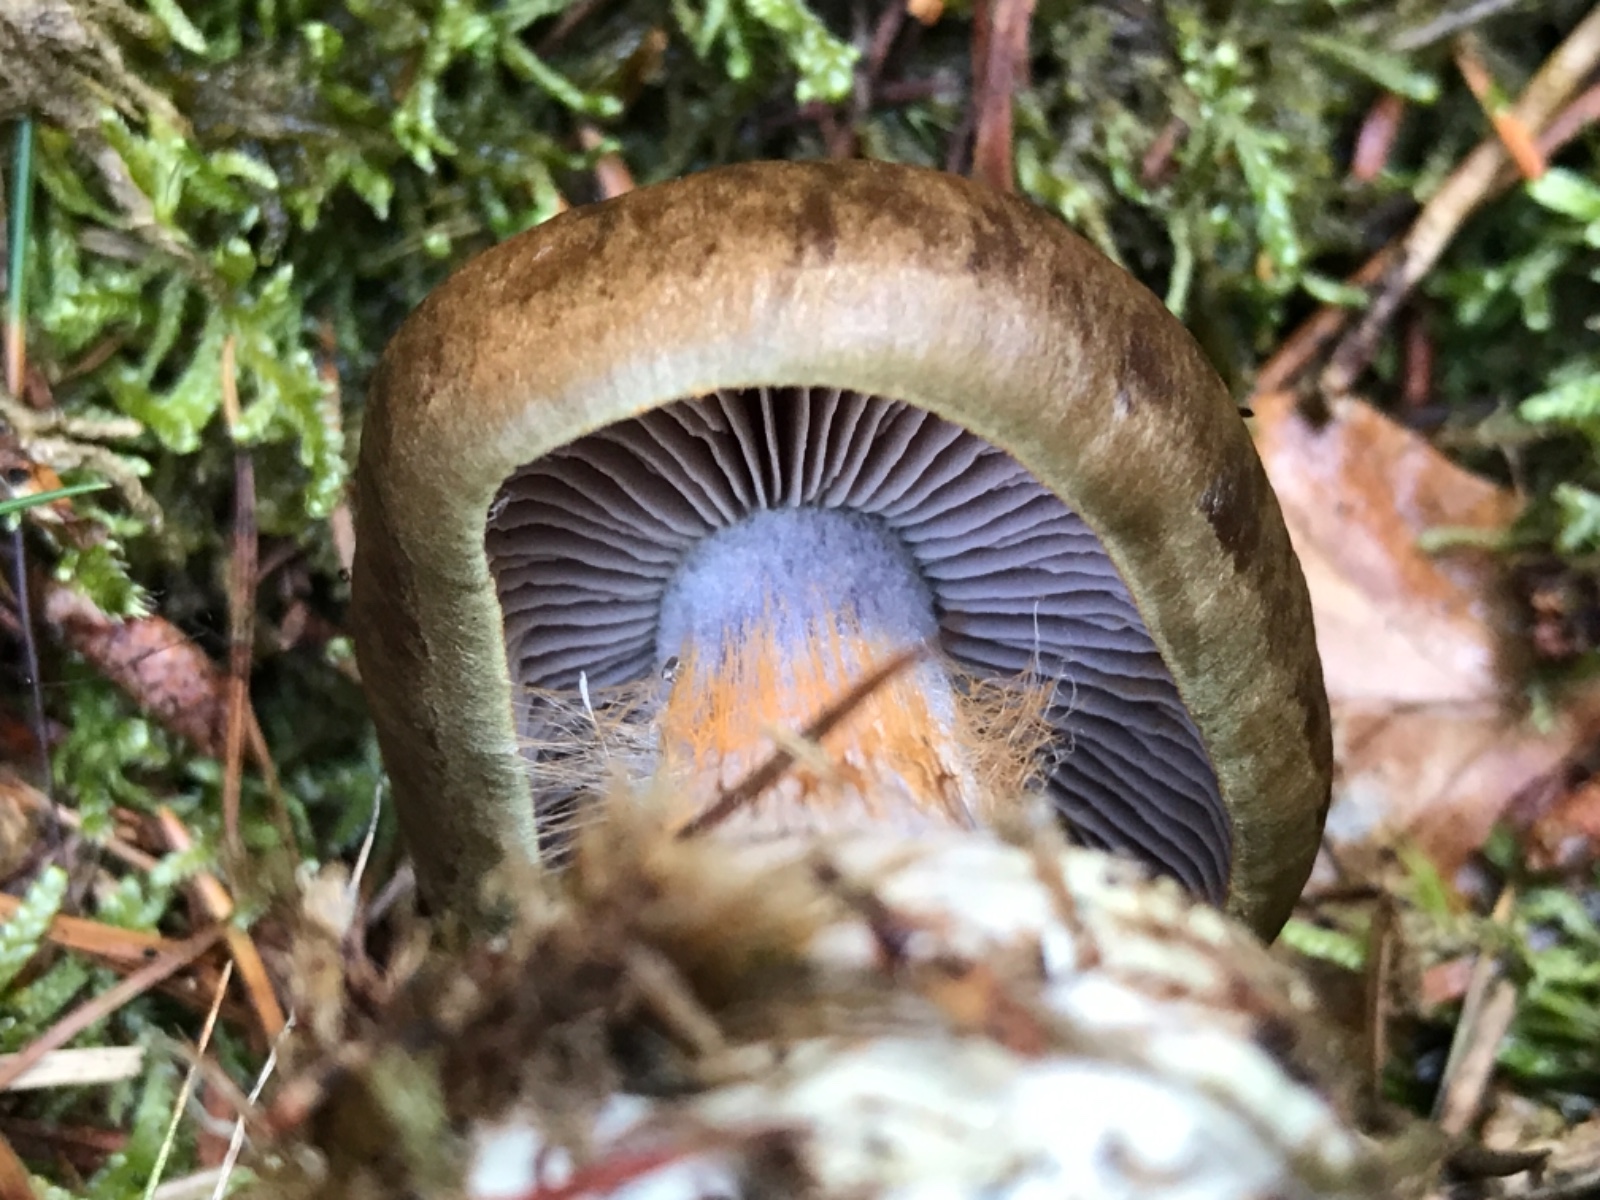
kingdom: Fungi
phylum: Basidiomycota
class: Agaricomycetes
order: Agaricales
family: Cortinariaceae
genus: Thaxterogaster
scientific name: Thaxterogaster sphagnophilus
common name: vandplettet slørhat
